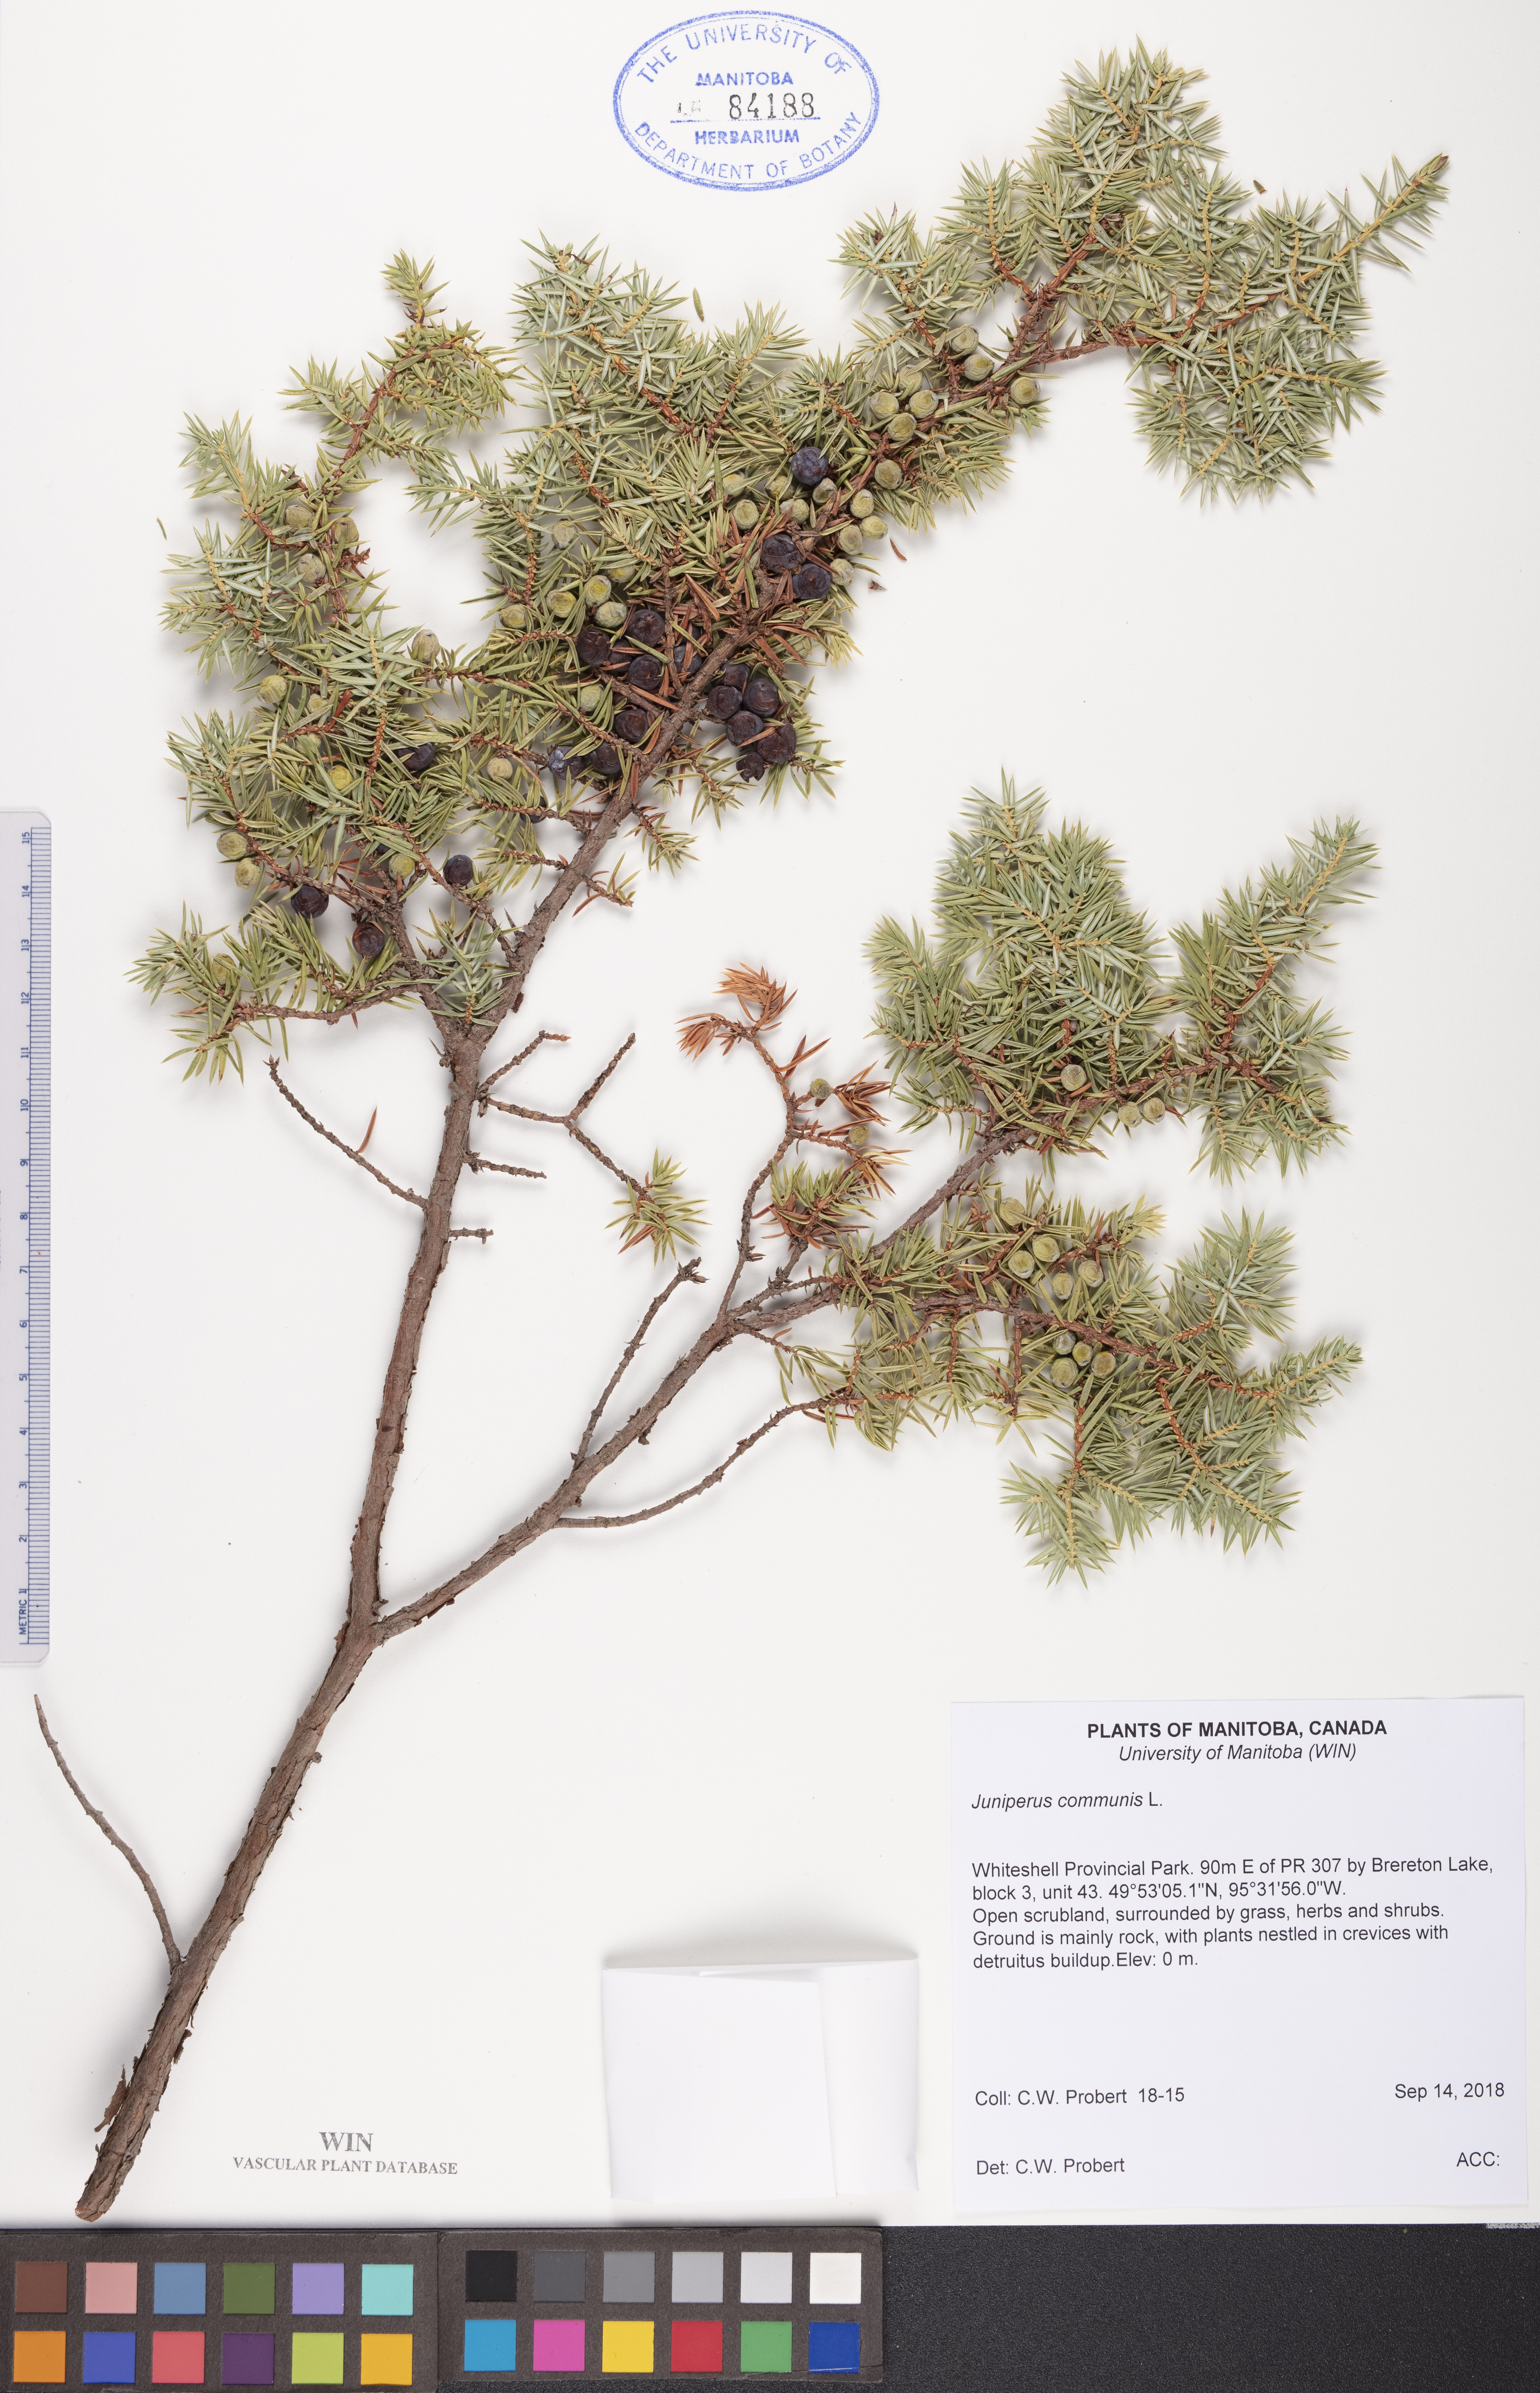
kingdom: Plantae
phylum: Tracheophyta
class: Pinopsida
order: Pinales
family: Cupressaceae
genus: Juniperus
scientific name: Juniperus communis
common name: Common juniper
